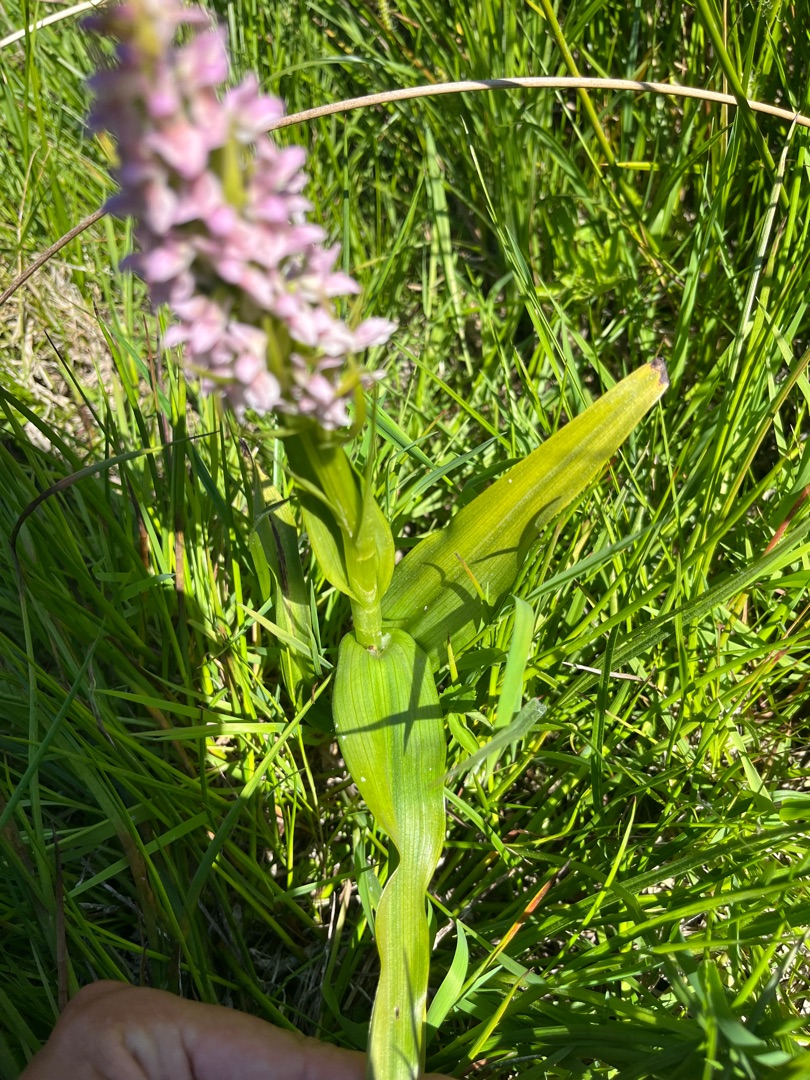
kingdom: Plantae
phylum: Tracheophyta
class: Liliopsida
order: Asparagales
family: Orchidaceae
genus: Dactylorhiza
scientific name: Dactylorhiza incarnata
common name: Kødfarvet gøgeurt
